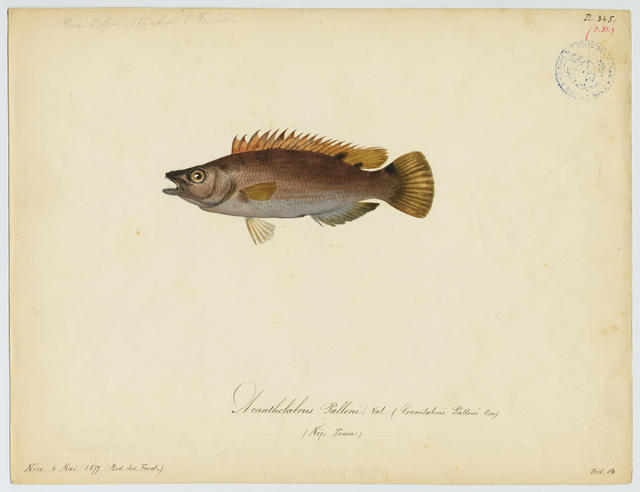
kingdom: Animalia
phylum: Chordata
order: Perciformes
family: Labridae
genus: Acantholabrus
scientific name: Acantholabrus palloni
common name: Scale-rayed wrasse
